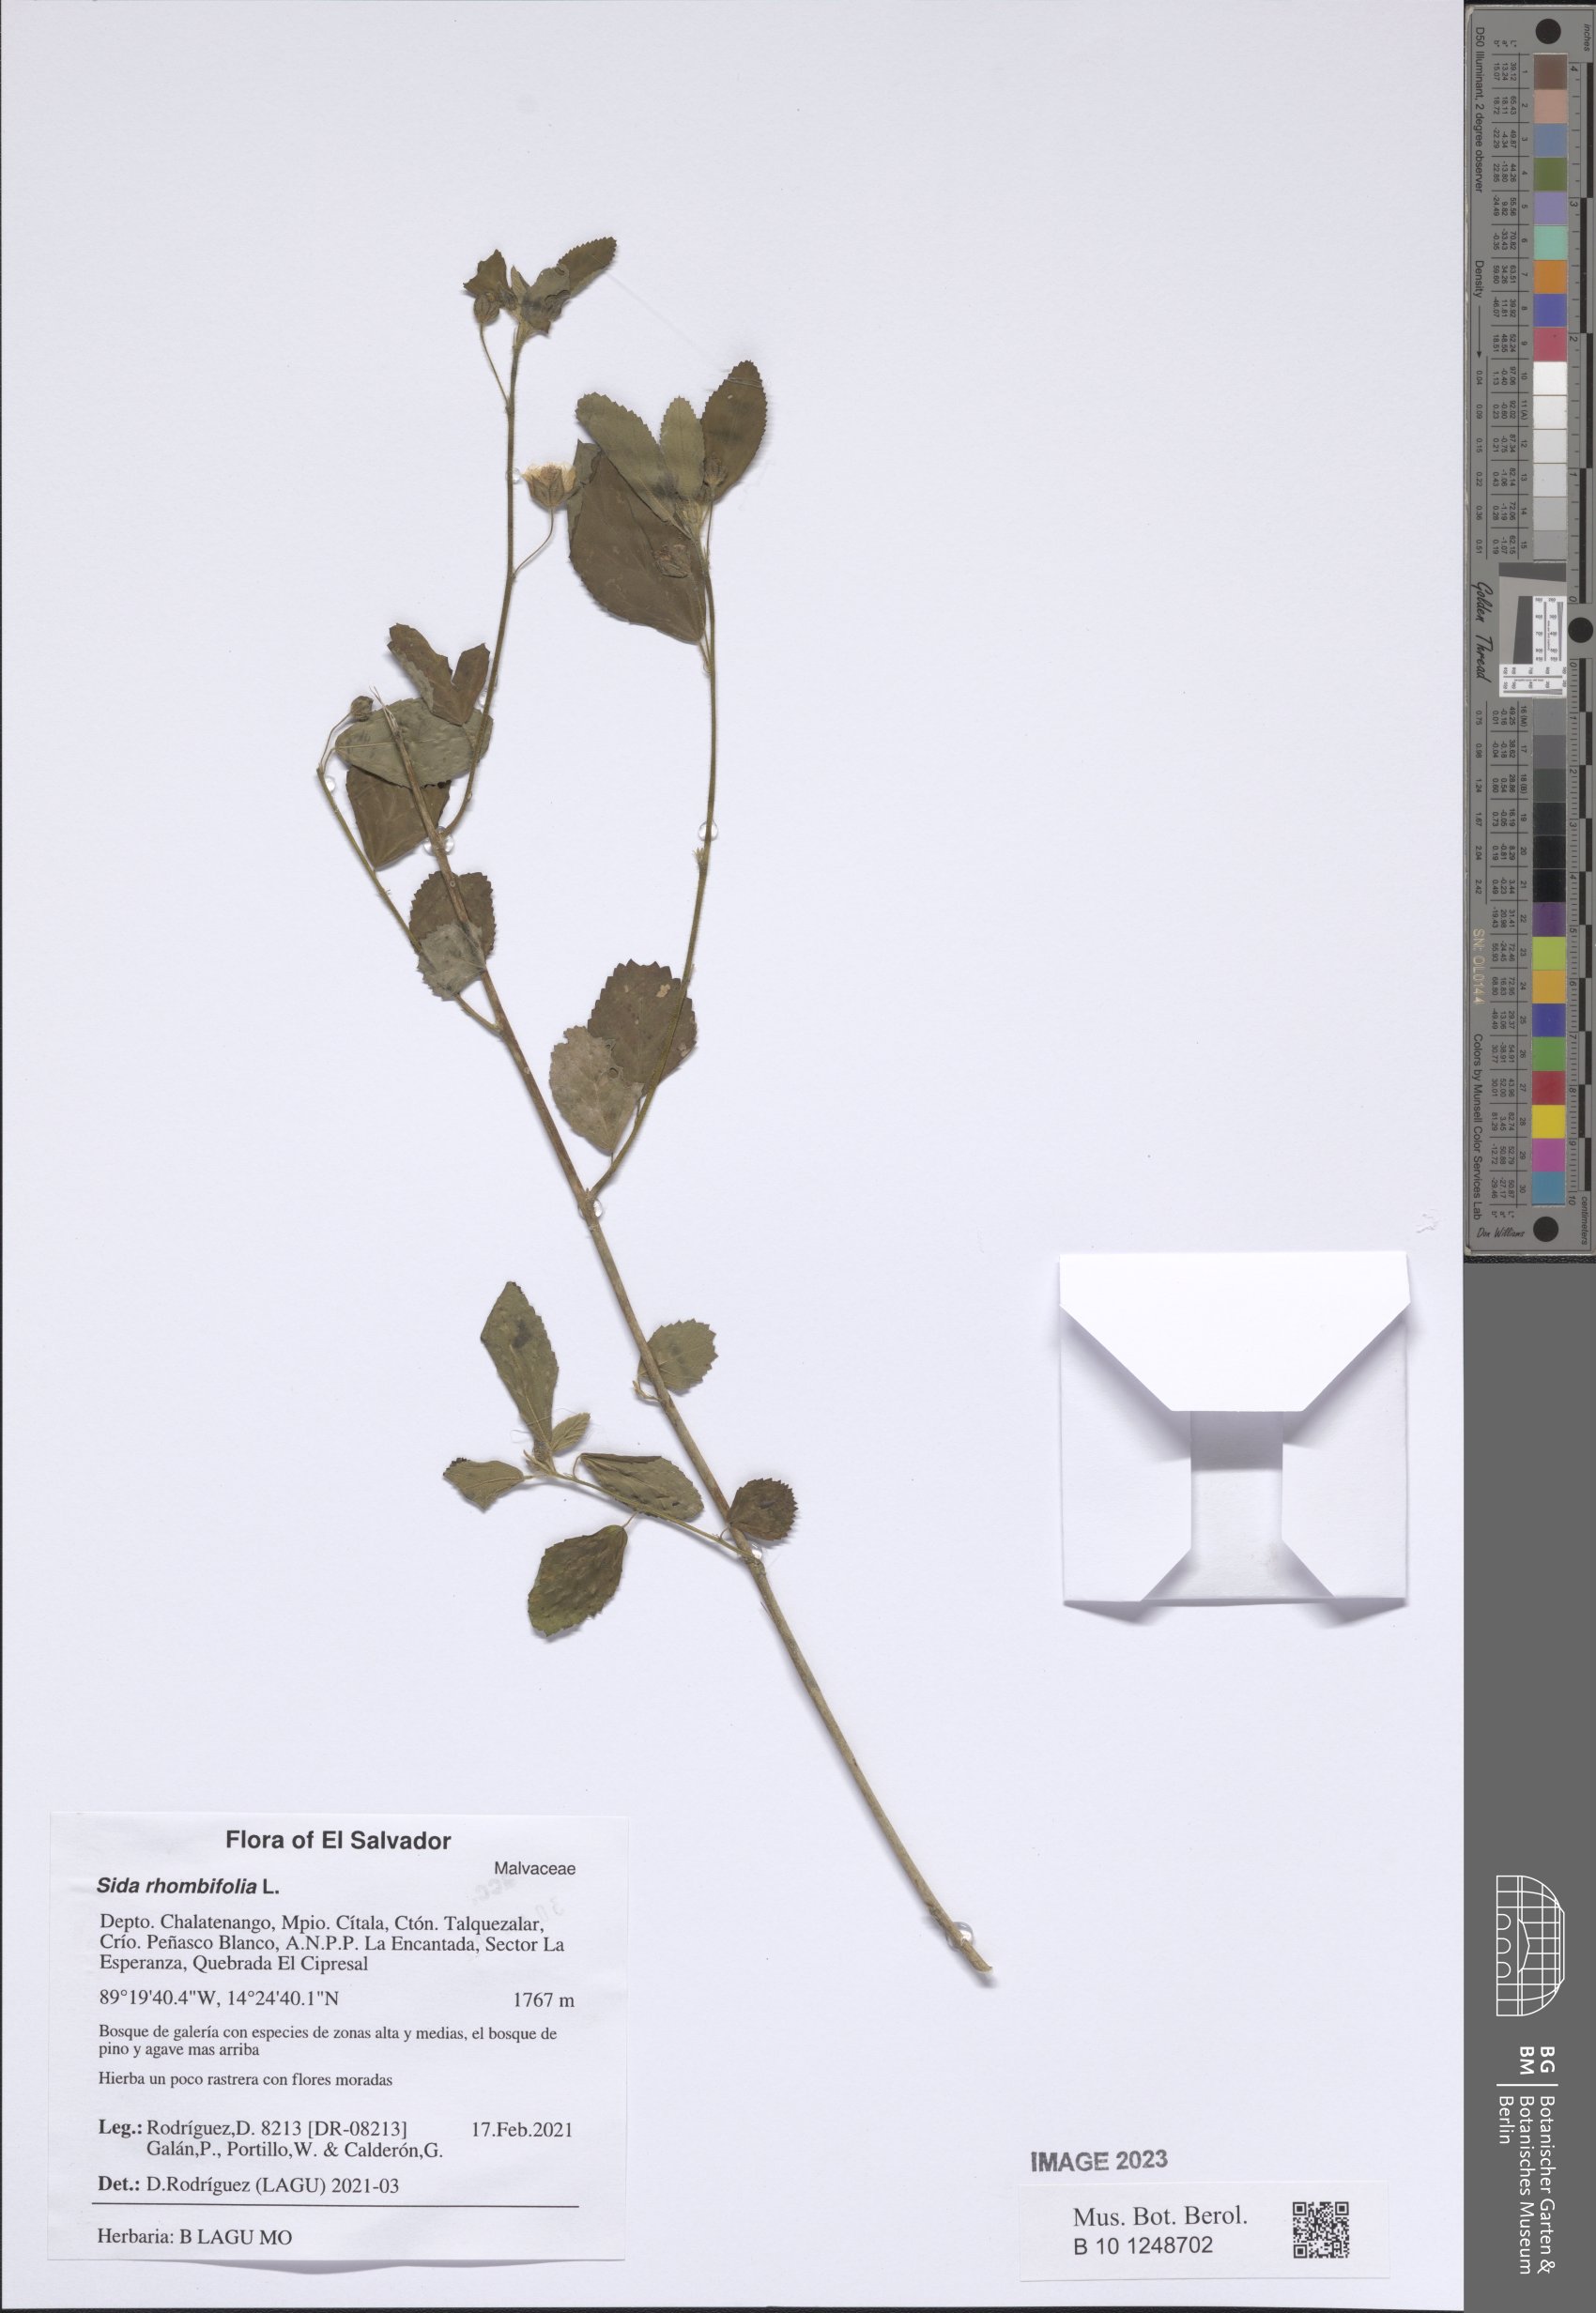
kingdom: Plantae
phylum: Tracheophyta
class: Magnoliopsida
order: Malvales
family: Malvaceae
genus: Sida
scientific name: Sida rhombifolia
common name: Queensland-hemp
